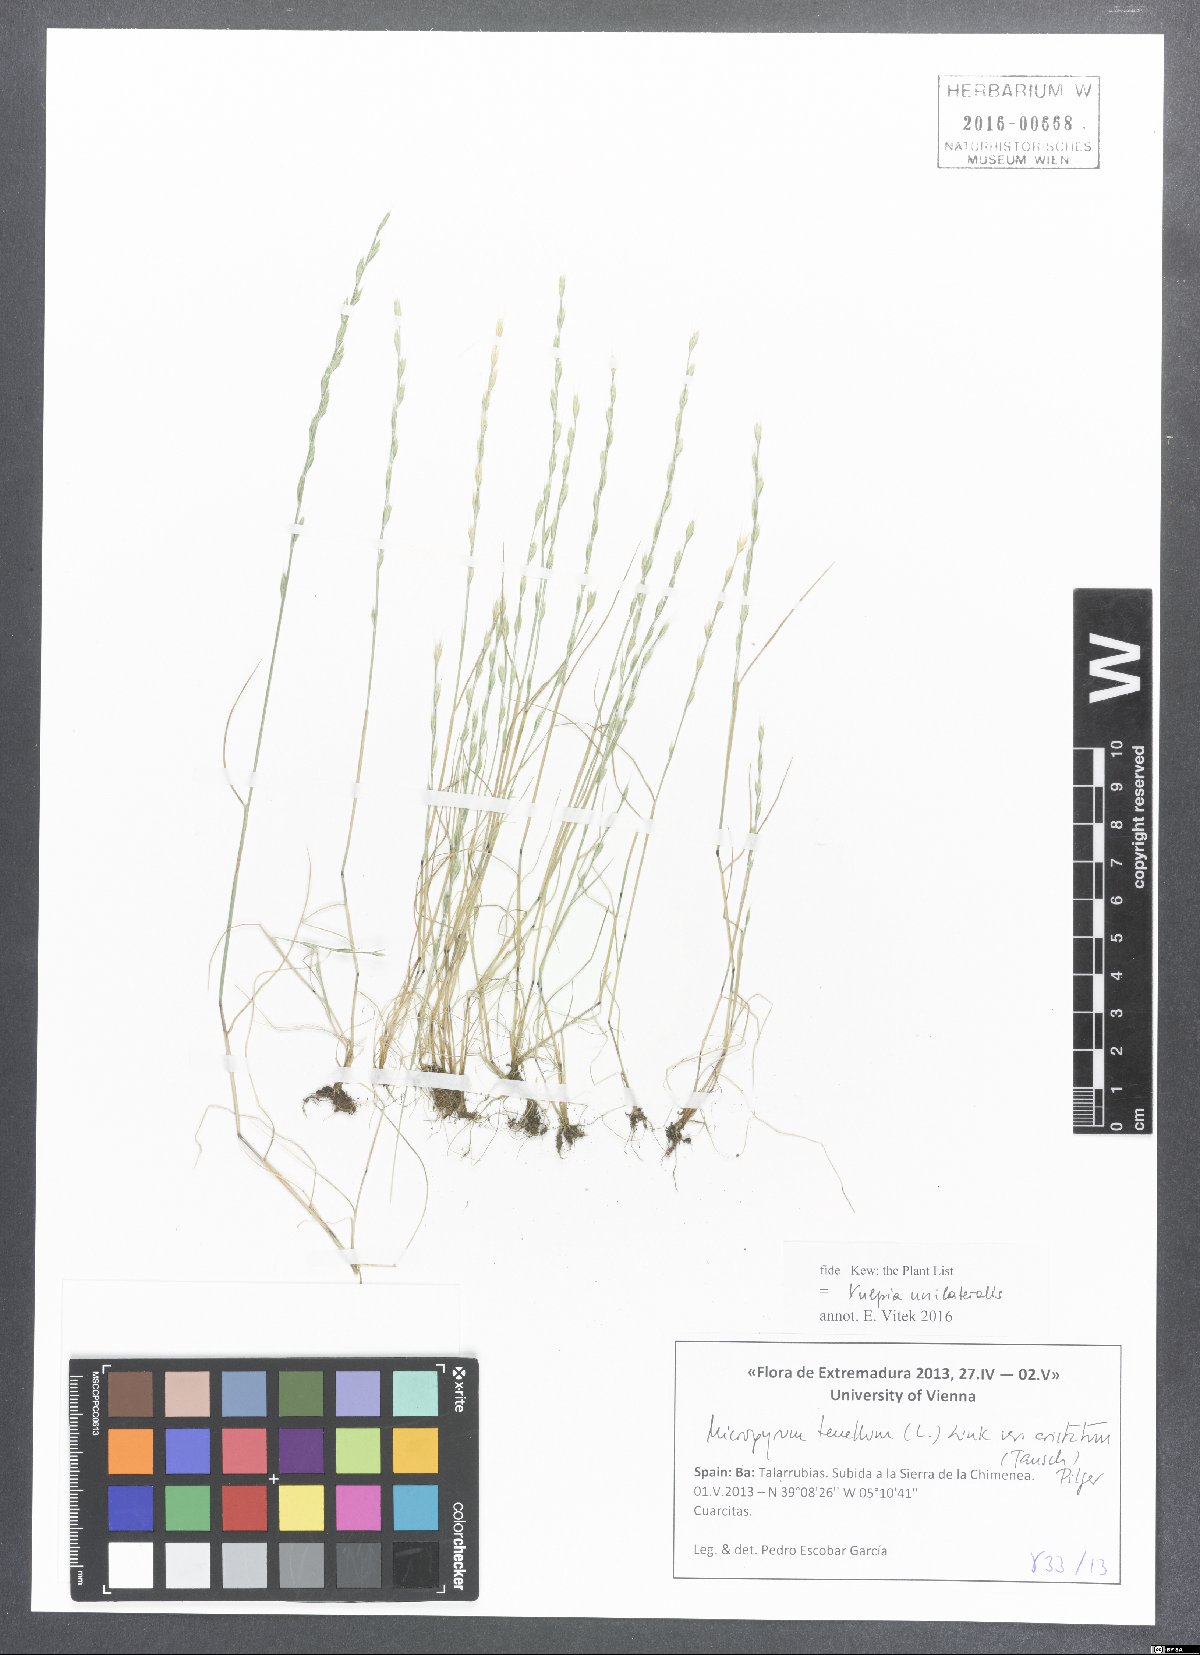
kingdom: Plantae
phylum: Tracheophyta
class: Liliopsida
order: Poales
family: Poaceae
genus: Festuca
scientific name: Festuca maritima
